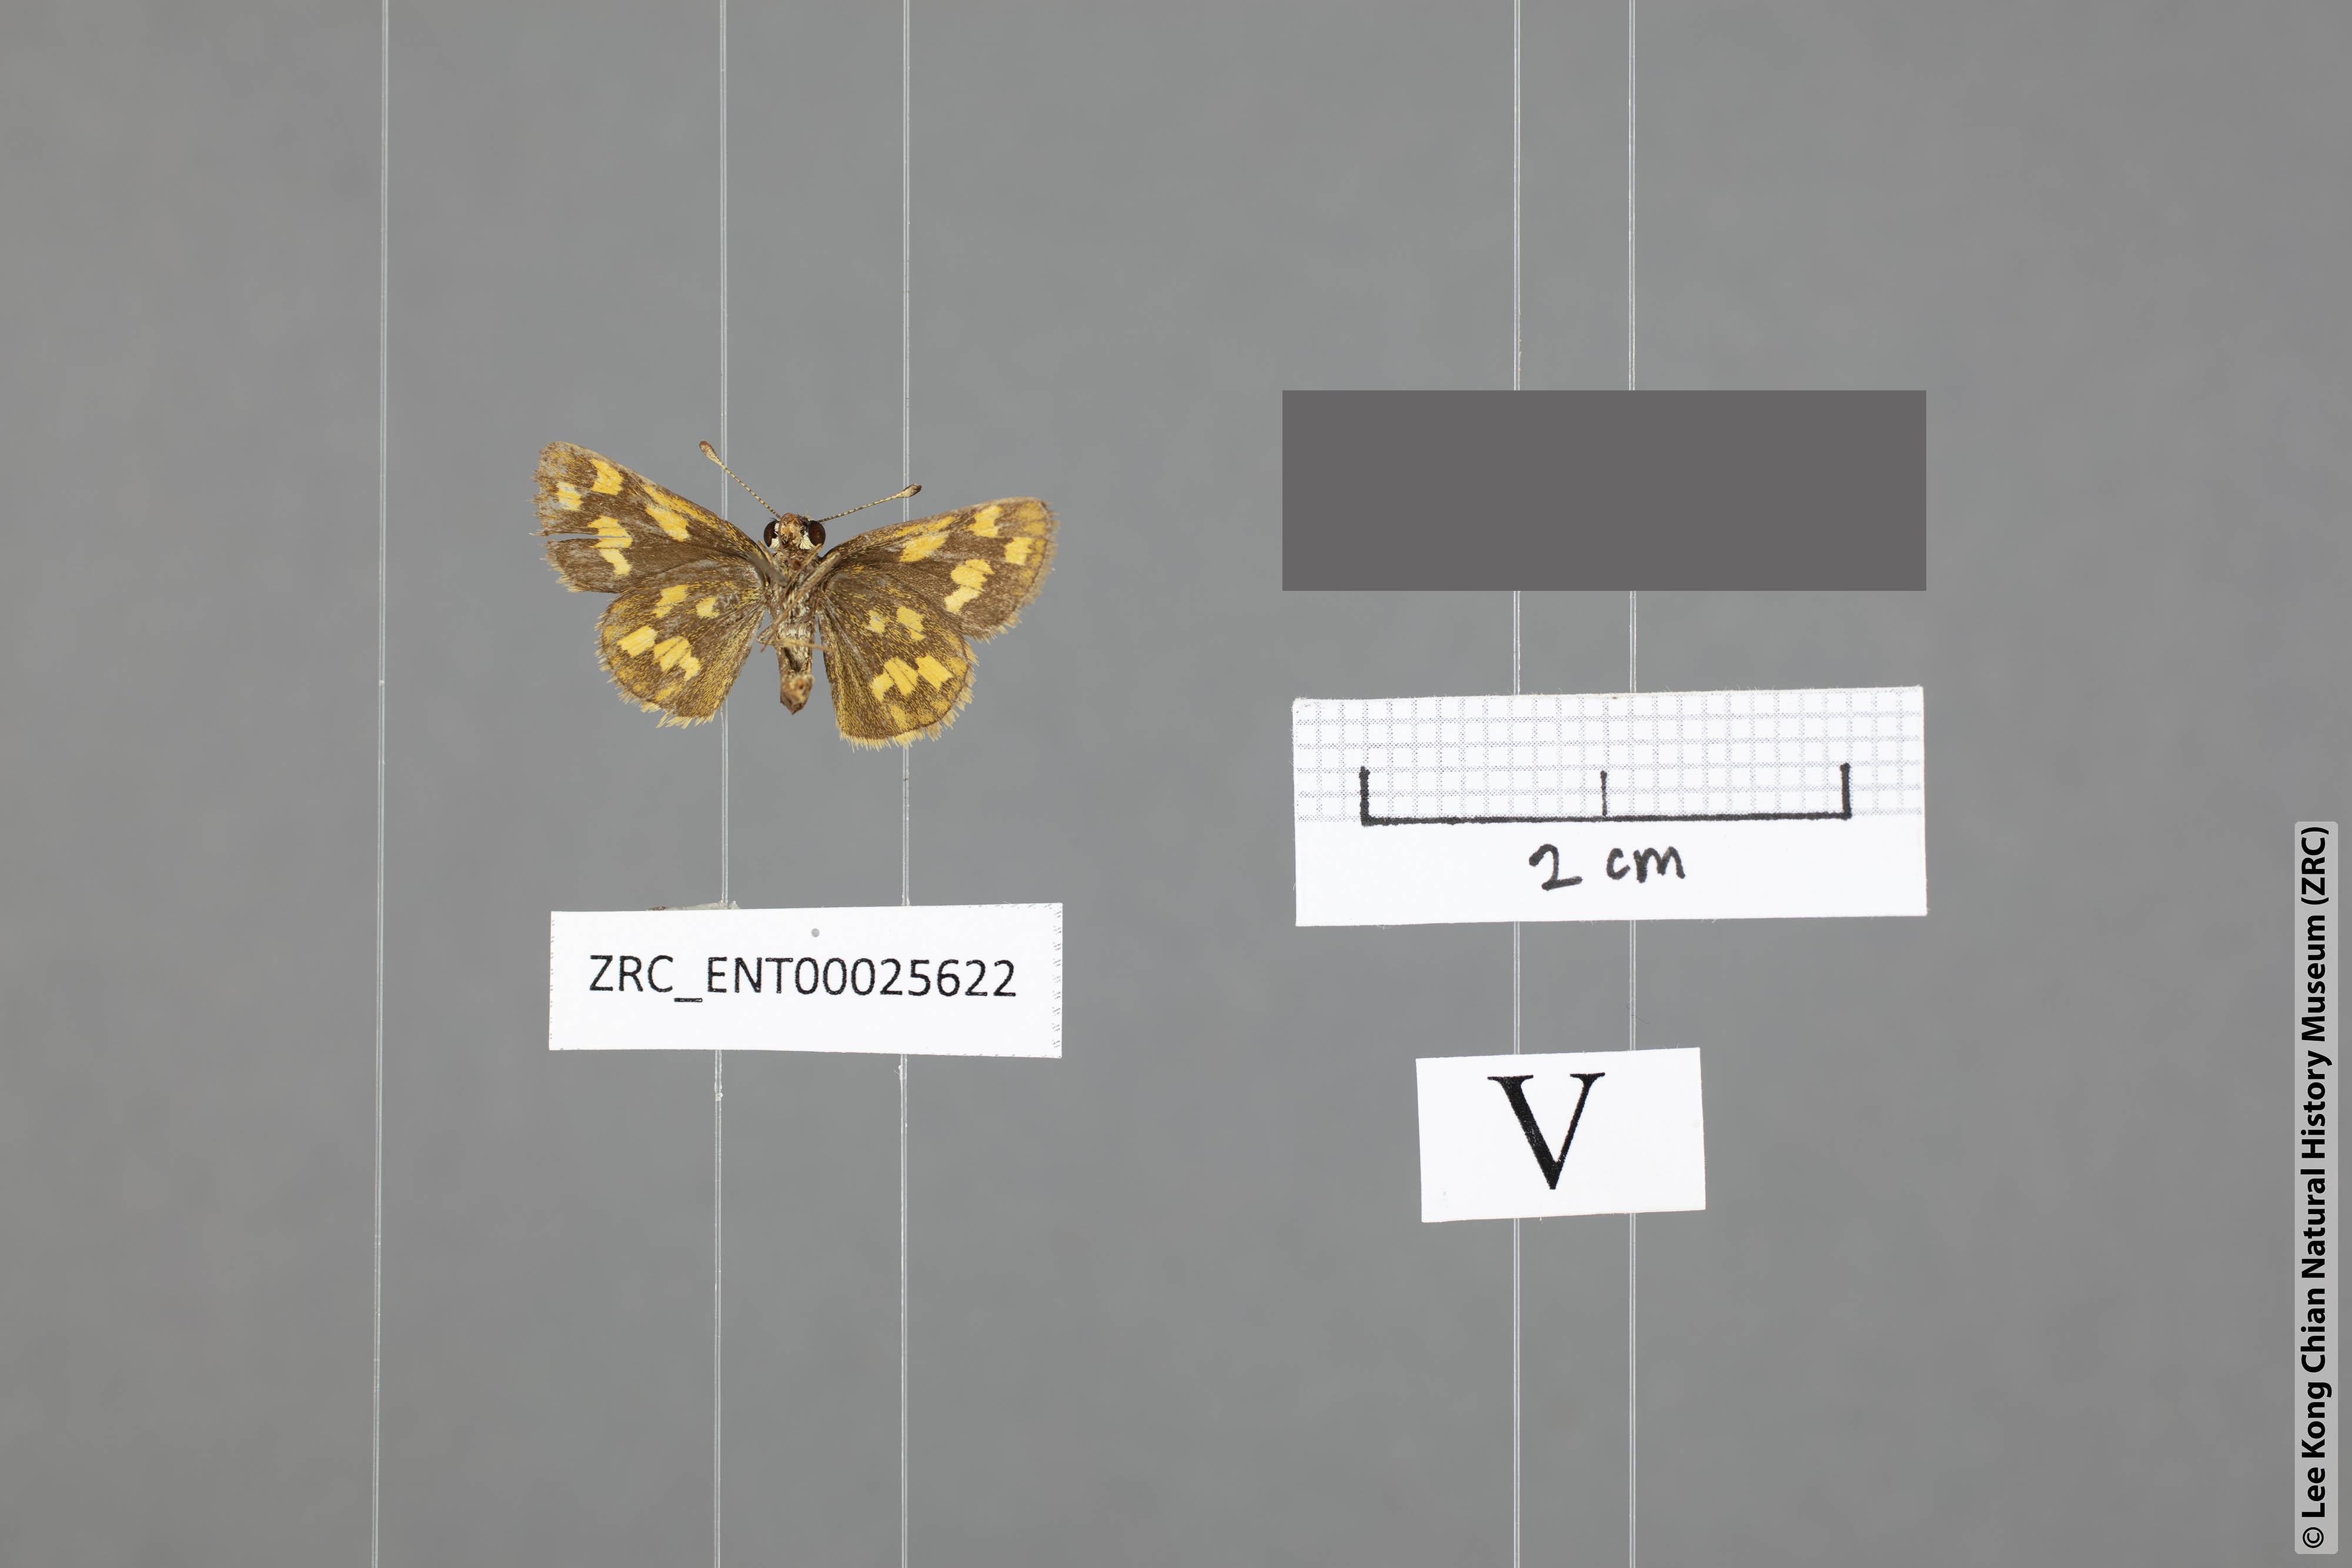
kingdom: Animalia
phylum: Arthropoda
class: Insecta
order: Lepidoptera
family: Hesperiidae
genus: Taractrocera
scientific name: Taractrocera ziclea
